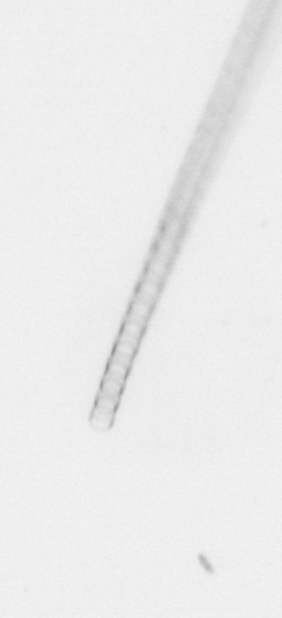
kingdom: Chromista
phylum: Ochrophyta
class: Bacillariophyceae
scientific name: Bacillariophyceae
